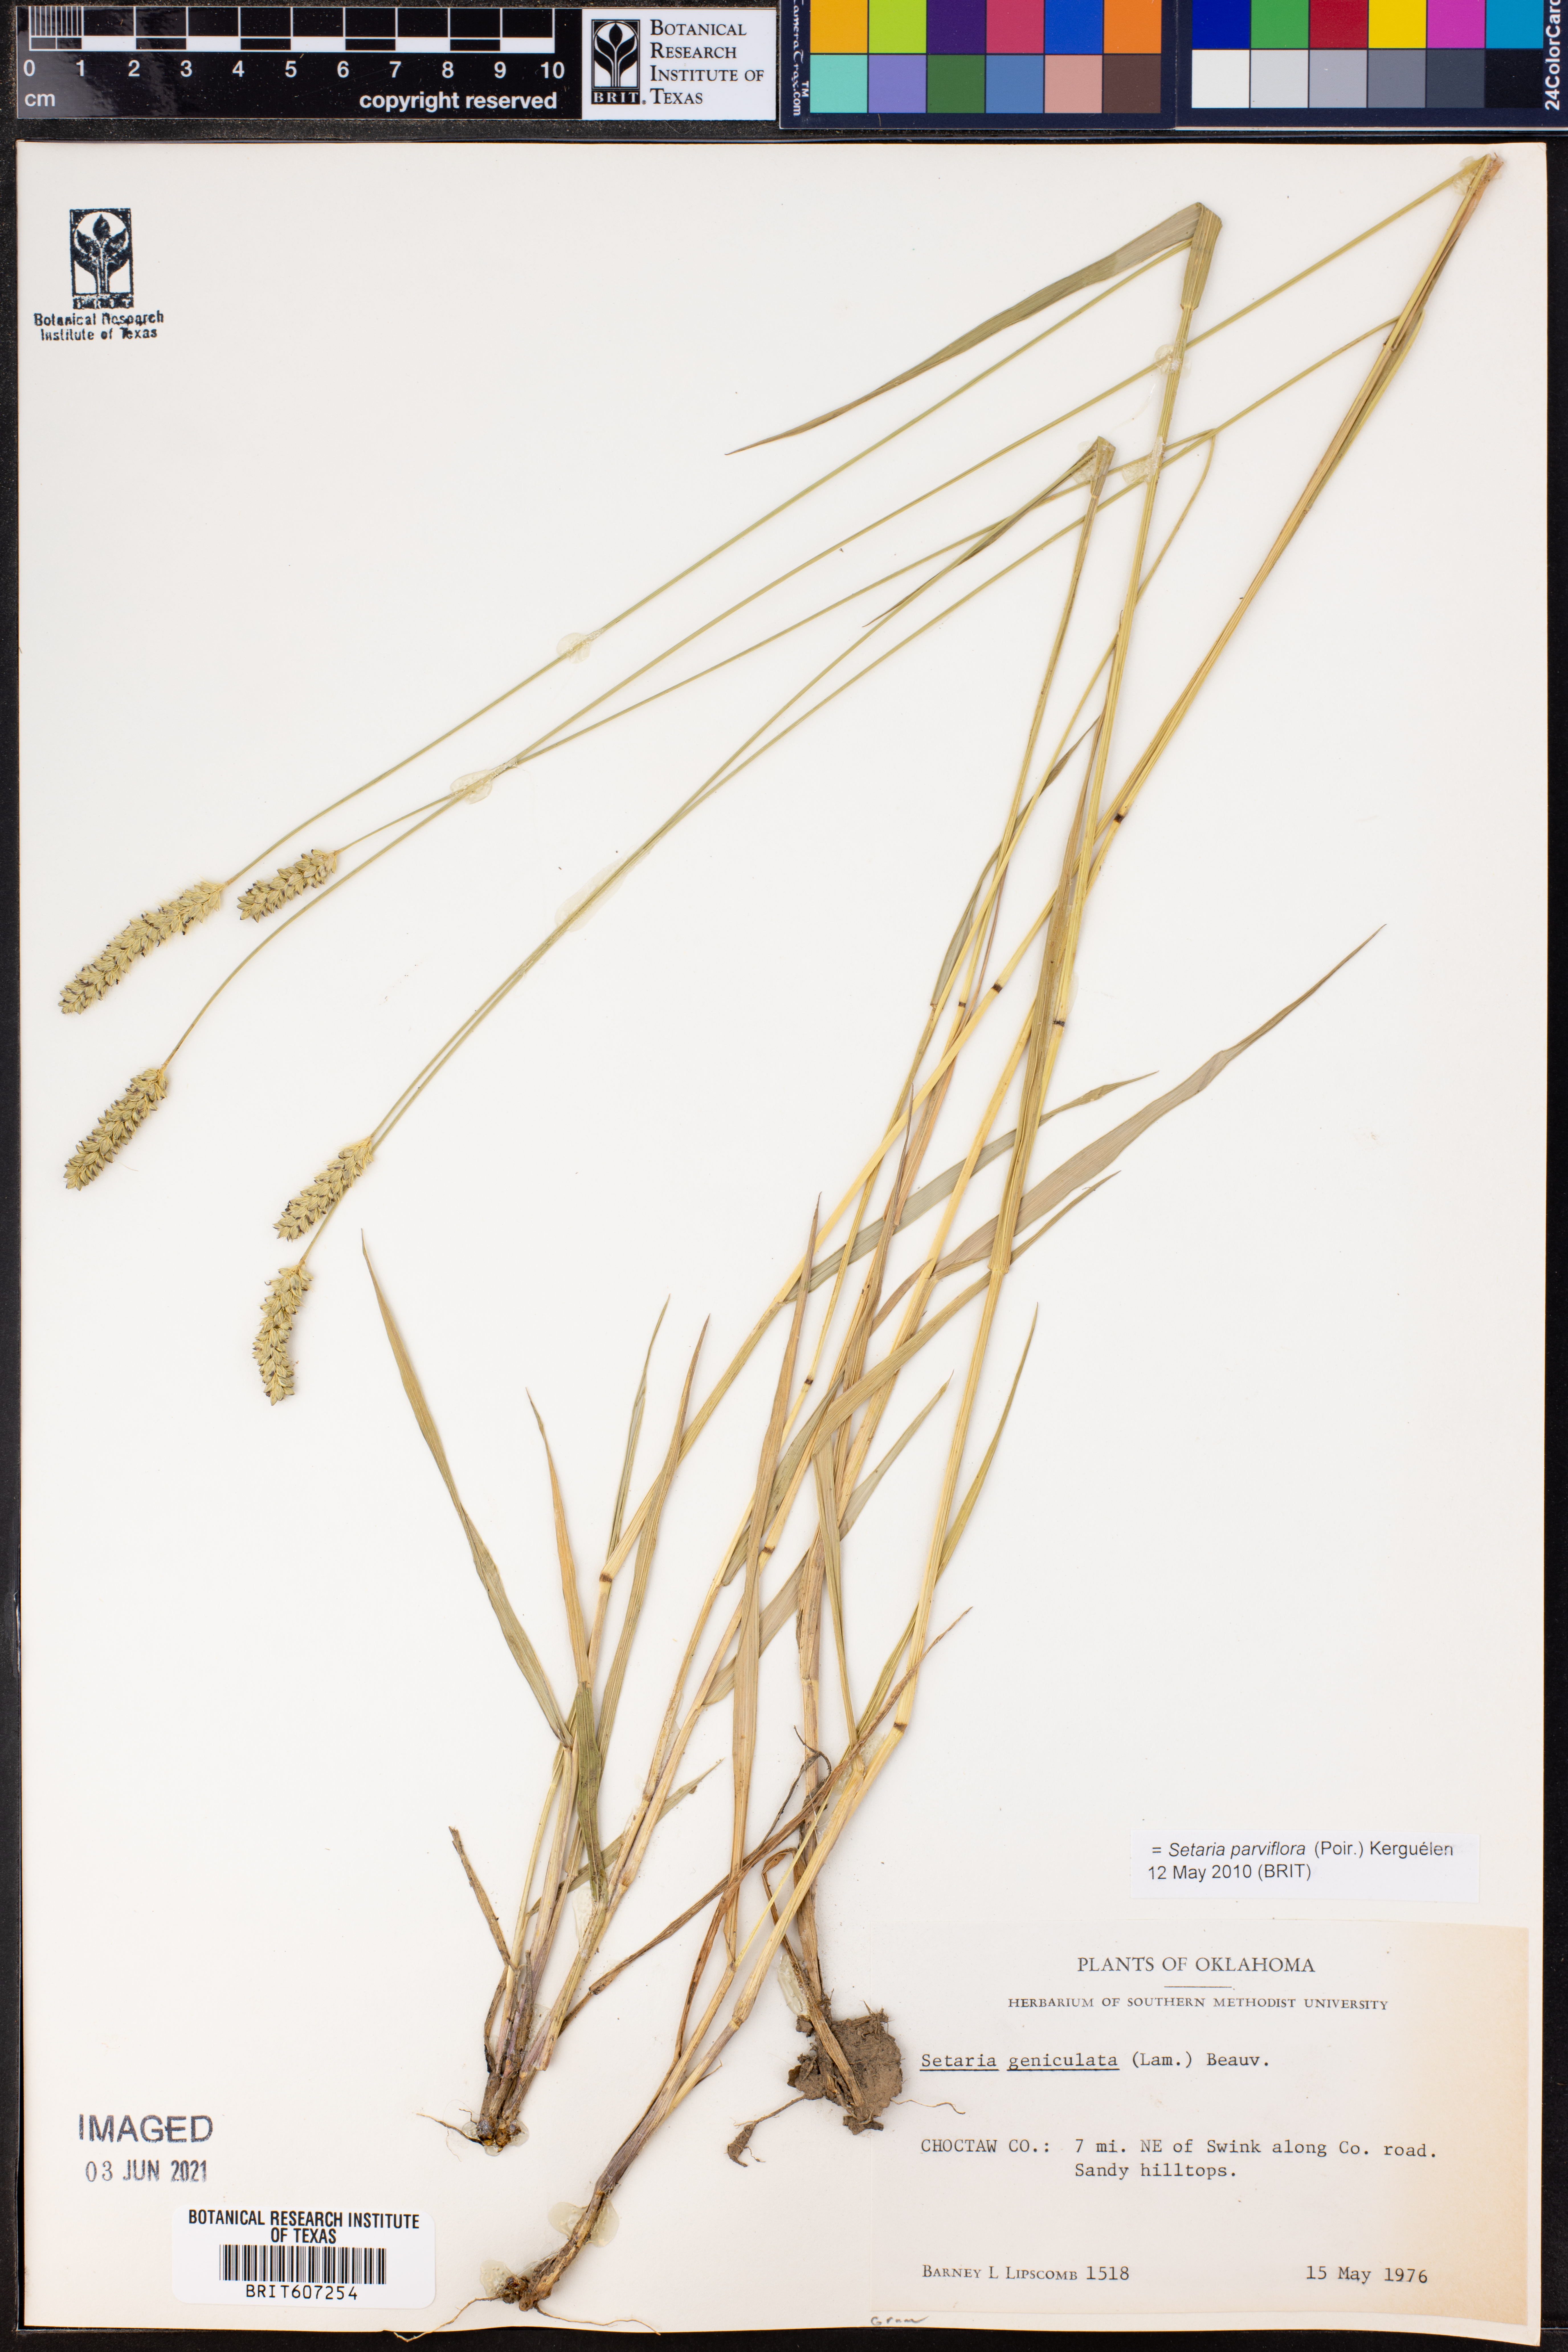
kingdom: Plantae
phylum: Tracheophyta
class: Liliopsida
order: Poales
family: Poaceae
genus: Setaria
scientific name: Setaria parviflora
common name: Knotroot bristle-grass
